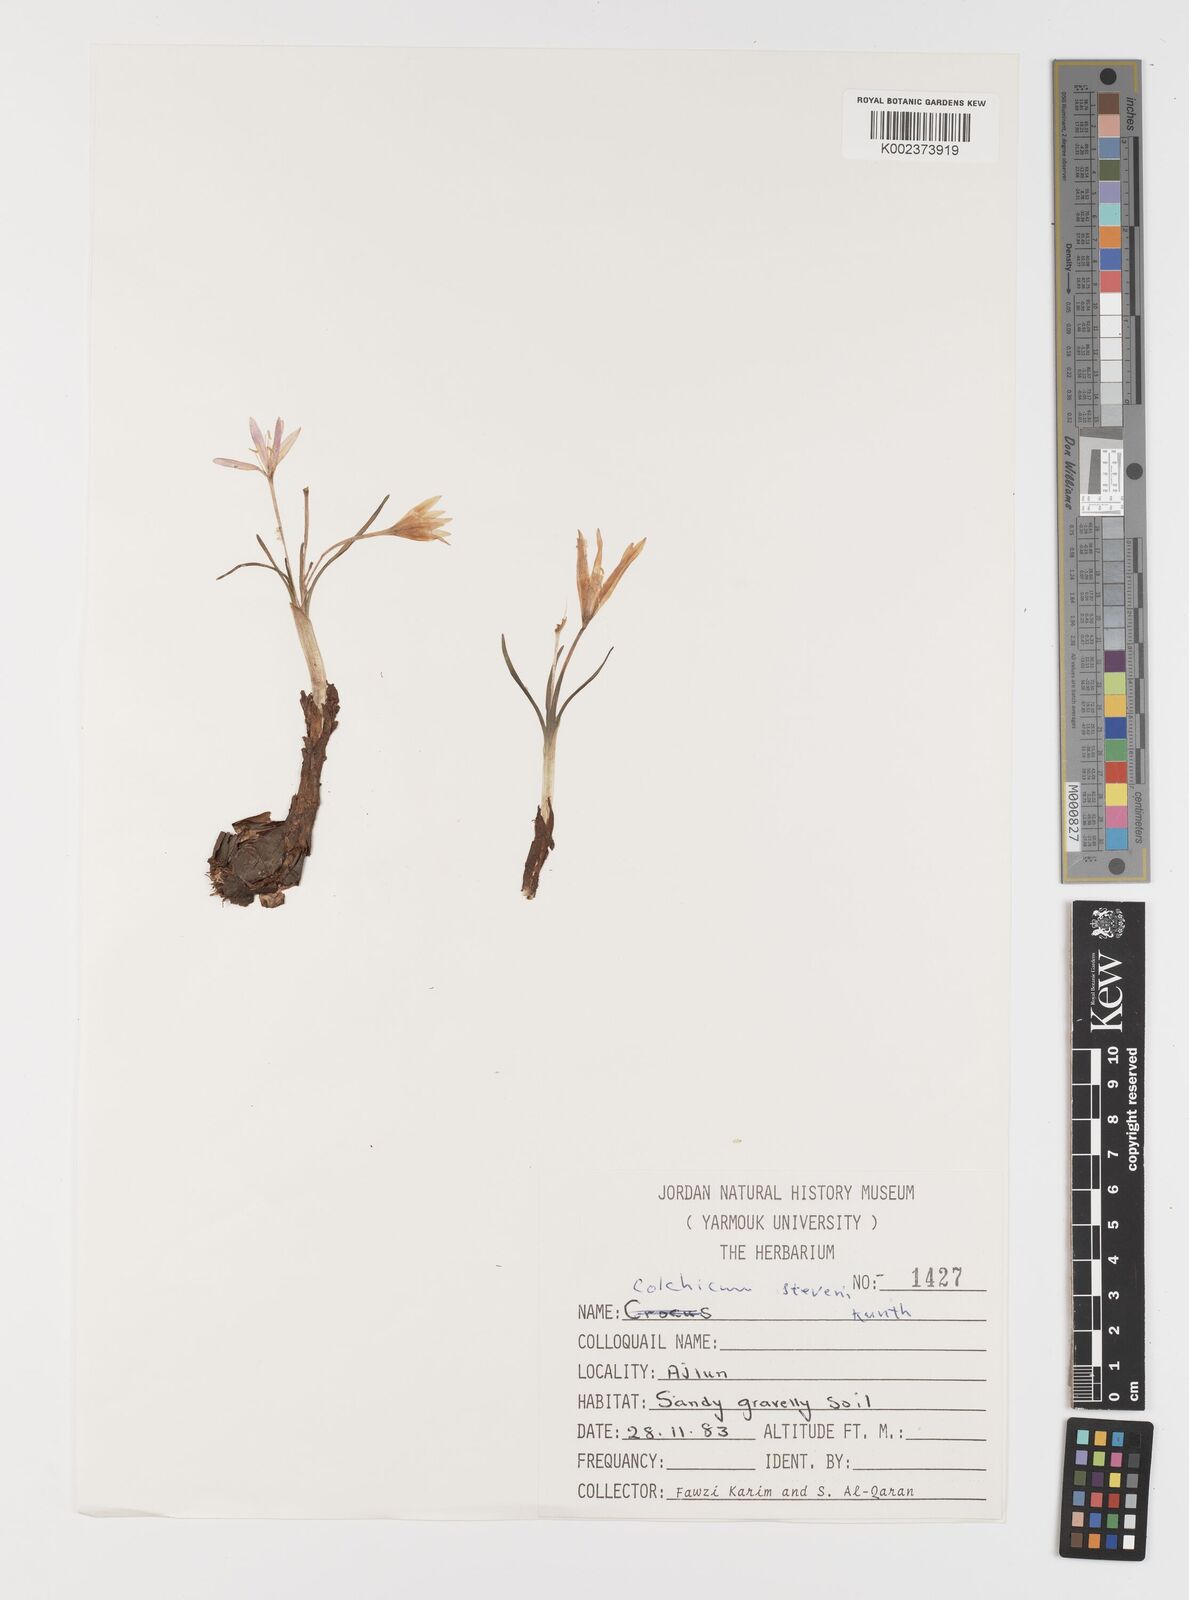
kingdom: Plantae
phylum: Tracheophyta
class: Liliopsida
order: Liliales
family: Colchicaceae
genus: Colchicum
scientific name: Colchicum stevenii
